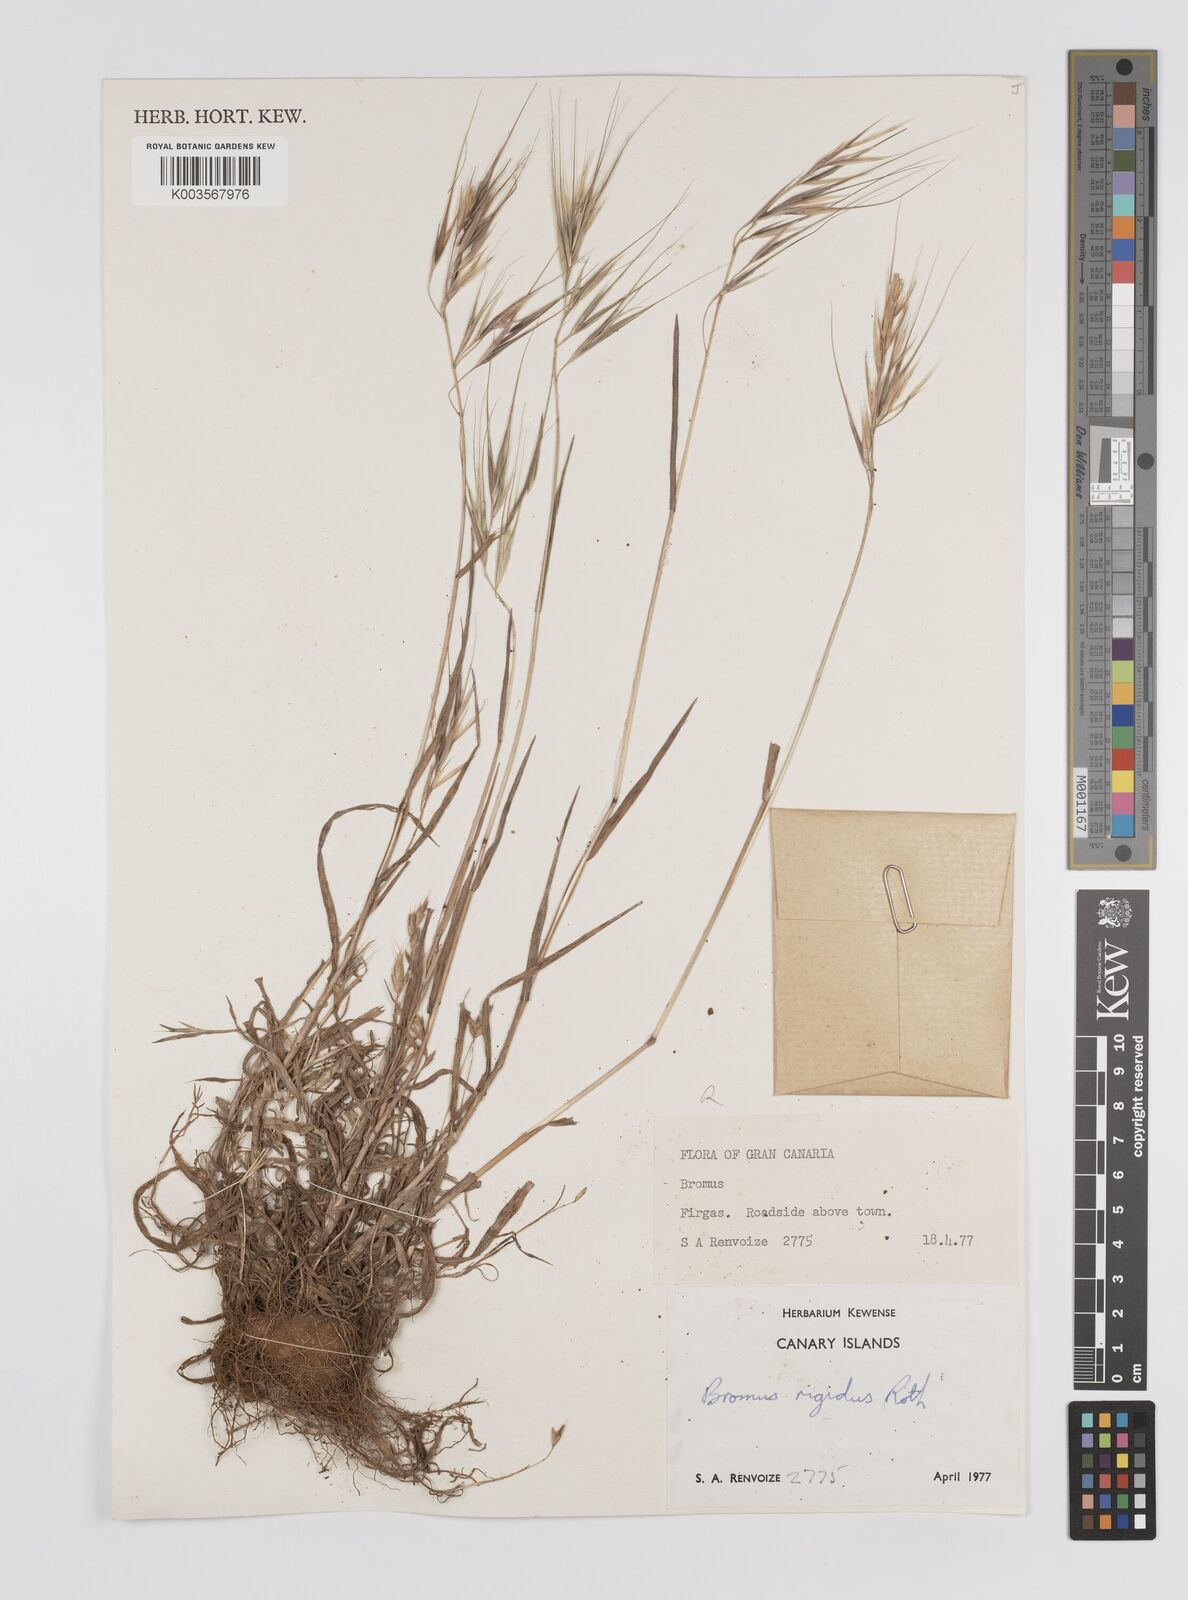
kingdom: Plantae
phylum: Tracheophyta
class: Liliopsida
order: Poales
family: Poaceae
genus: Bromus
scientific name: Bromus rigidus
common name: Ripgut brome
